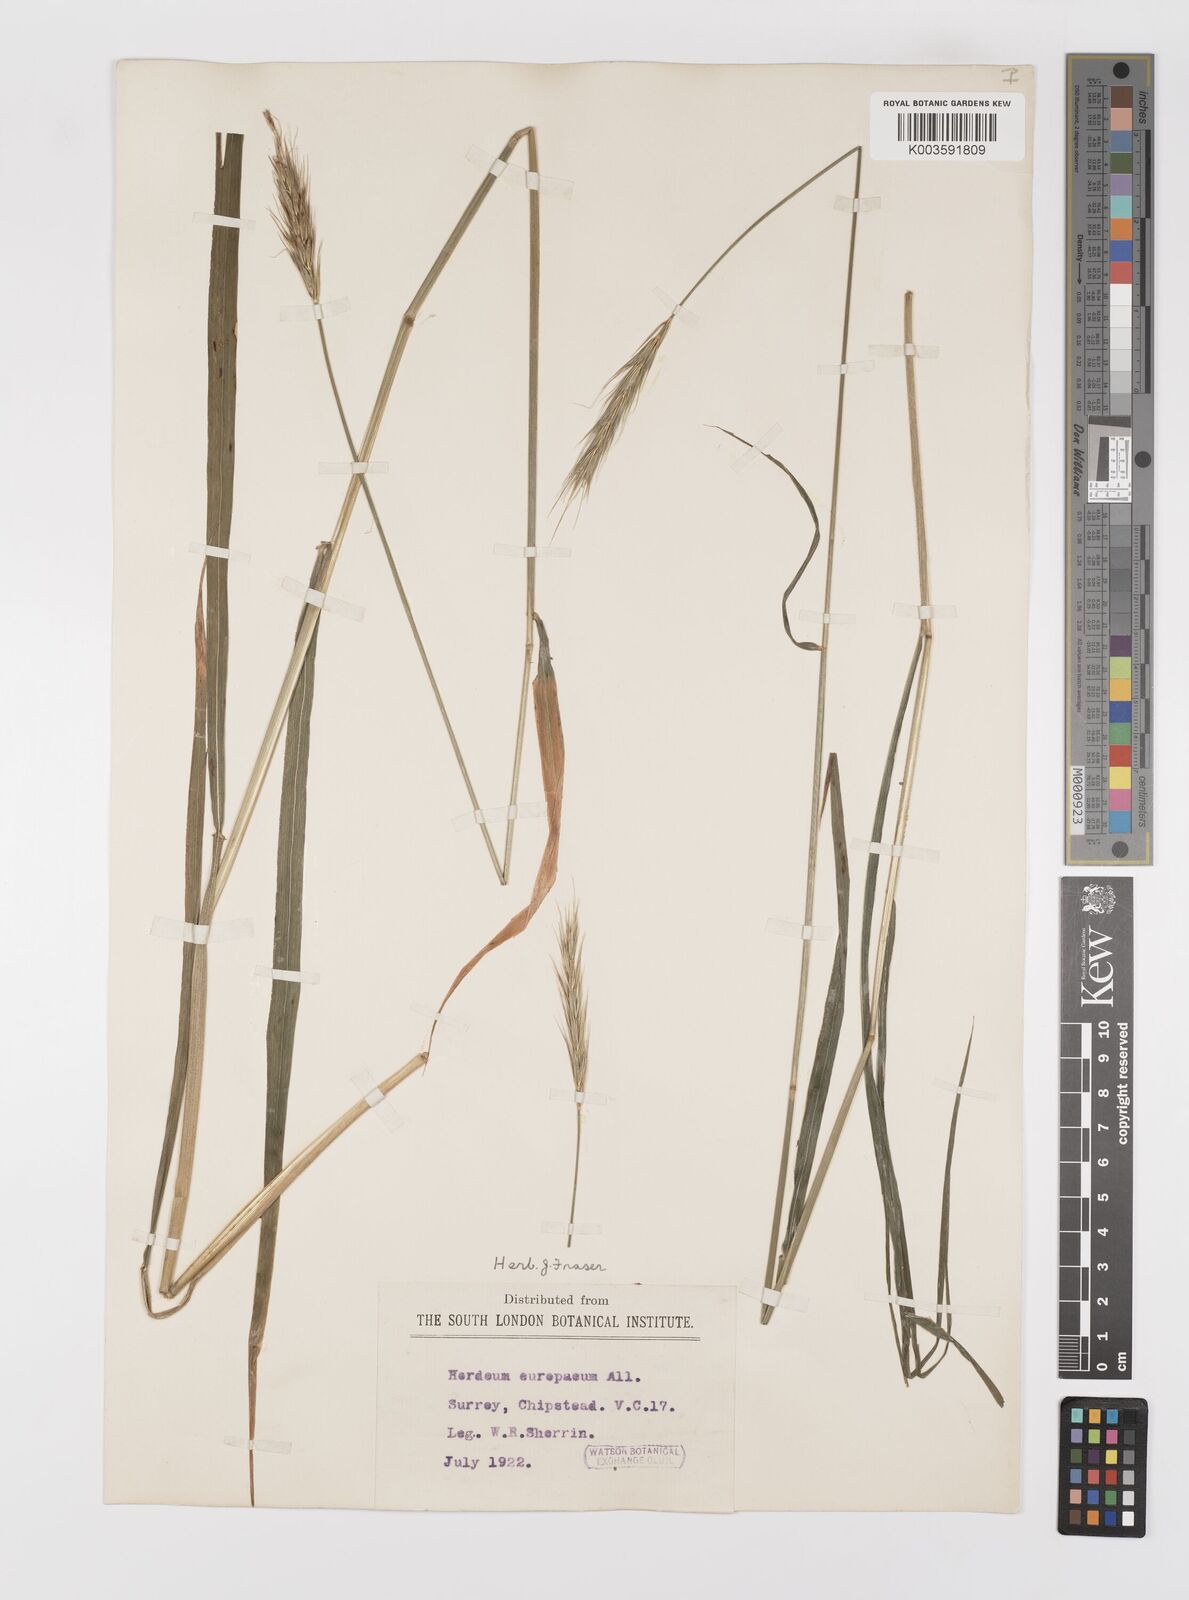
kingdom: Plantae
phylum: Tracheophyta
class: Liliopsida
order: Poales
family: Poaceae
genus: Hordelymus
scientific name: Hordelymus europaeus
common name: Wood-barley
